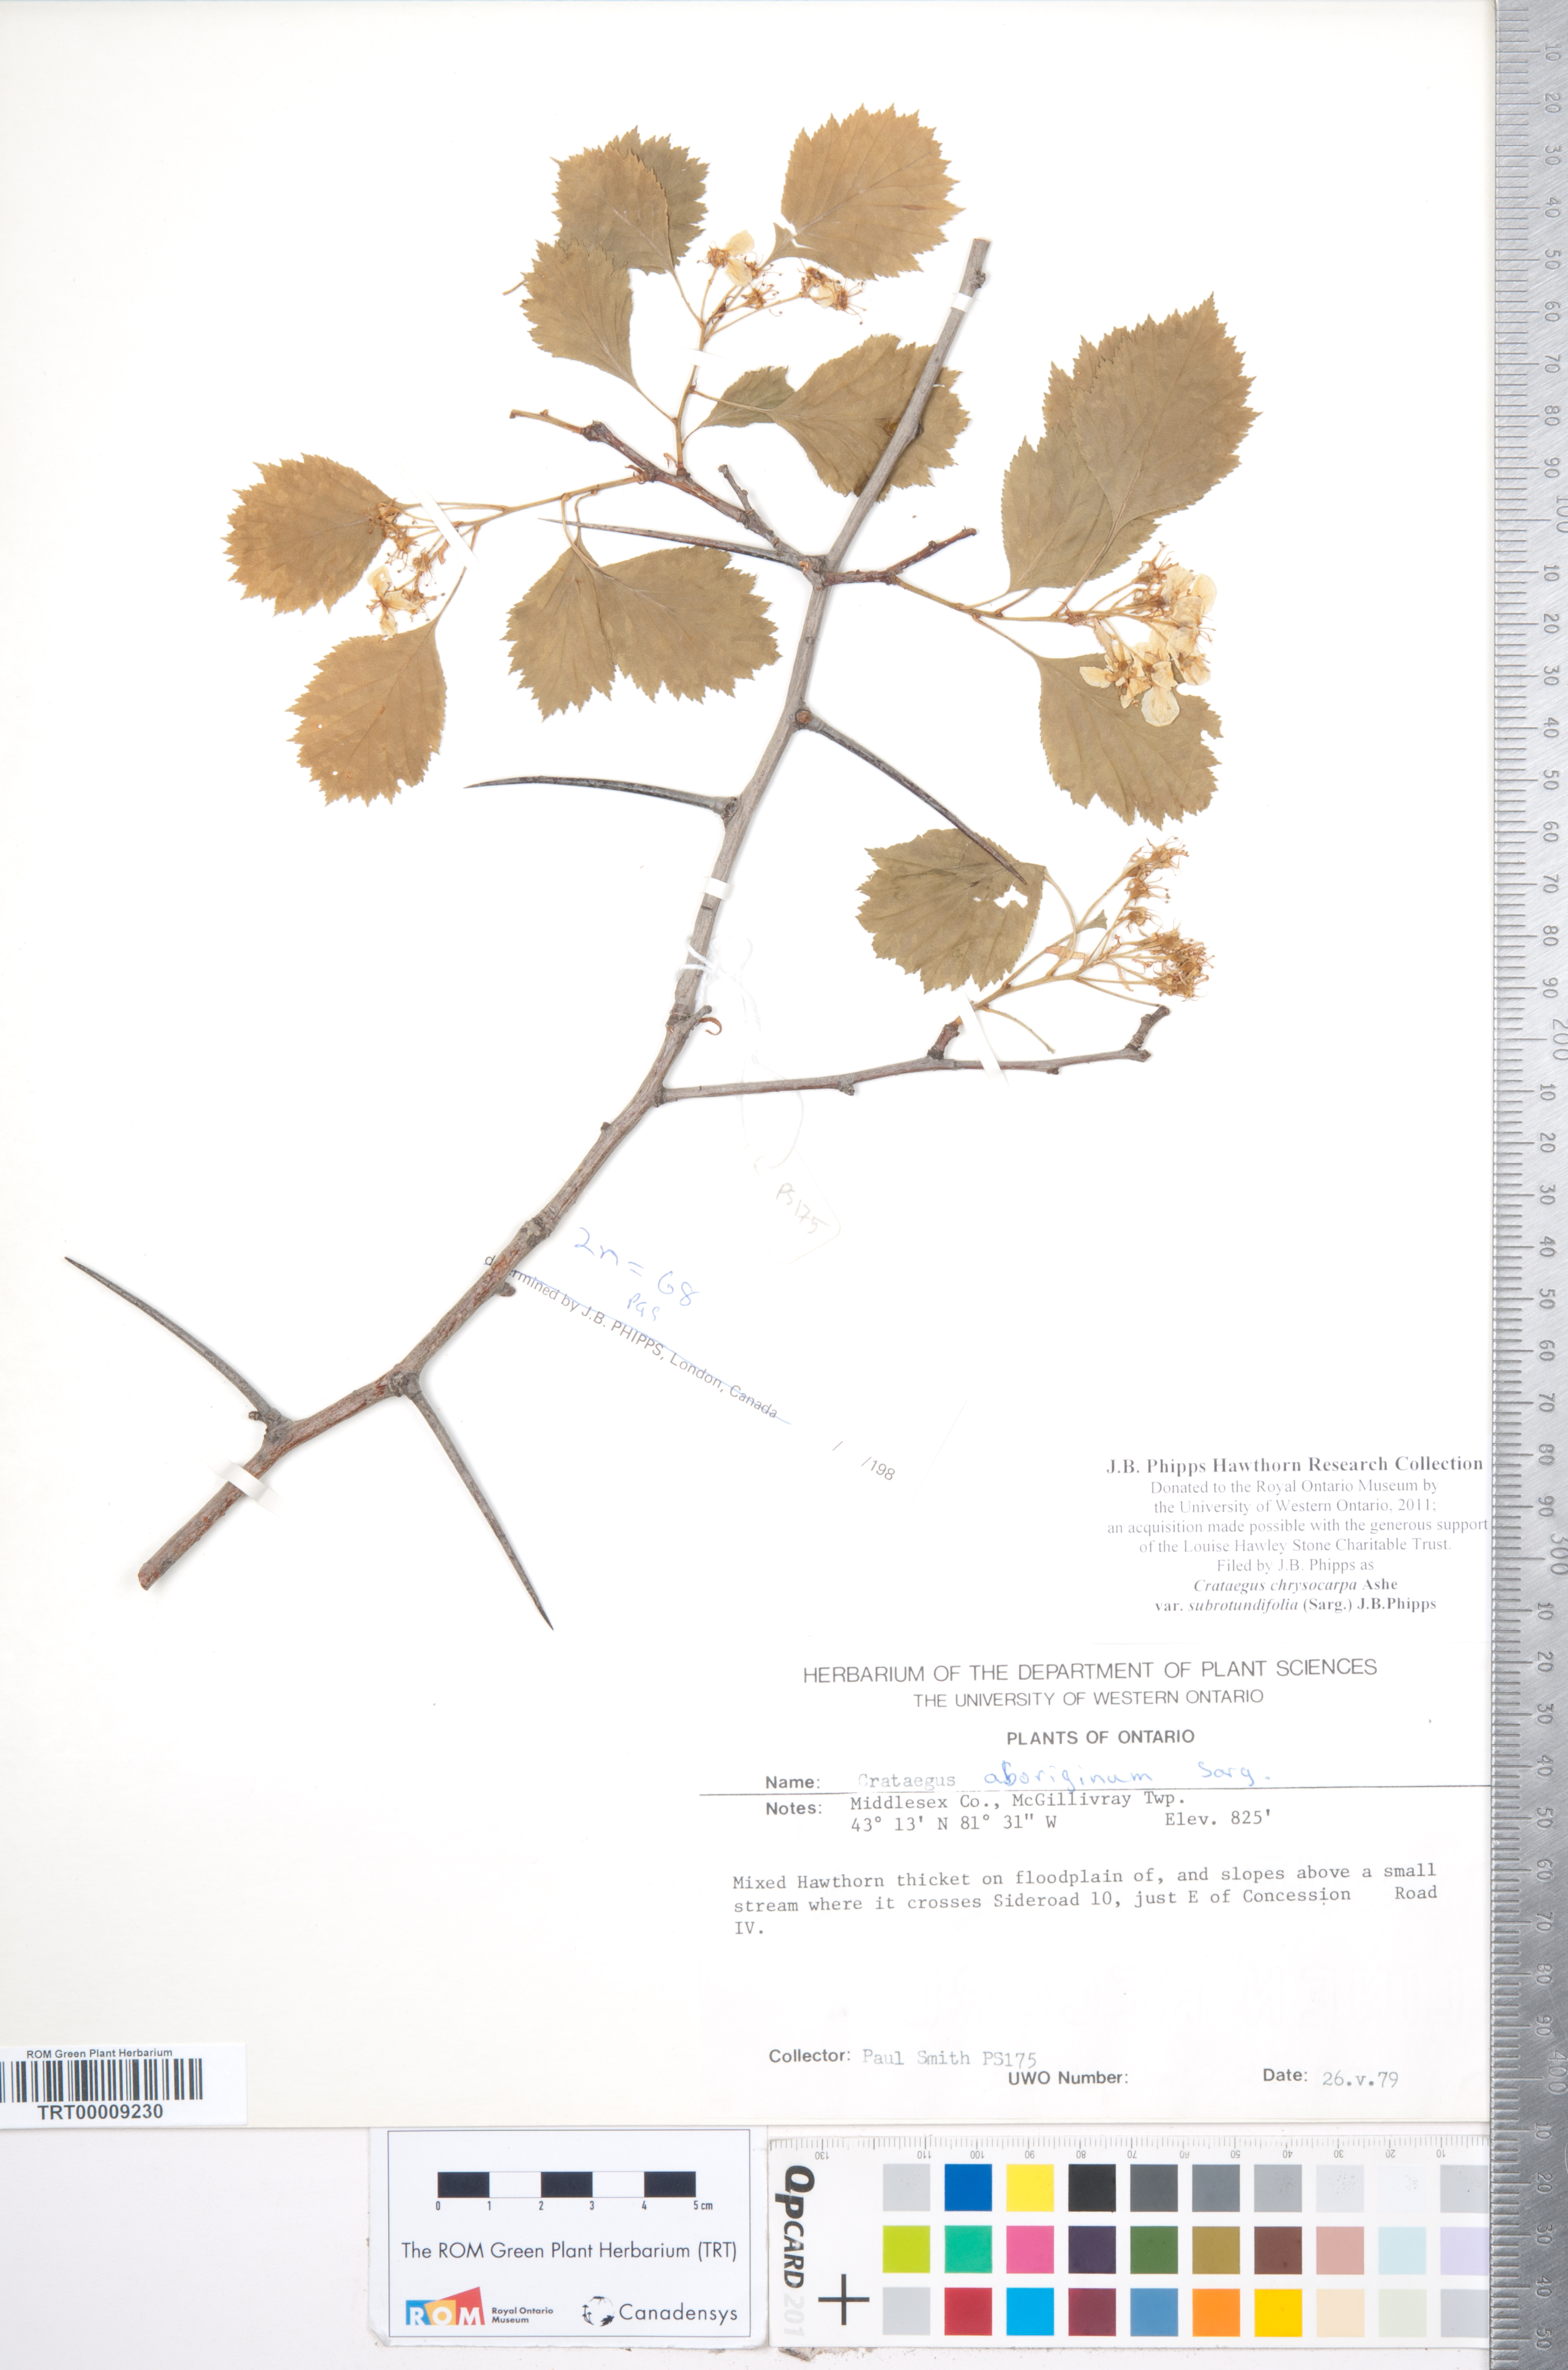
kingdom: Plantae
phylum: Tracheophyta
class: Magnoliopsida
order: Rosales
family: Rosaceae
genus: Crataegus
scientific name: Crataegus chrysocarpa
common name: Fire-berry hawthorn
